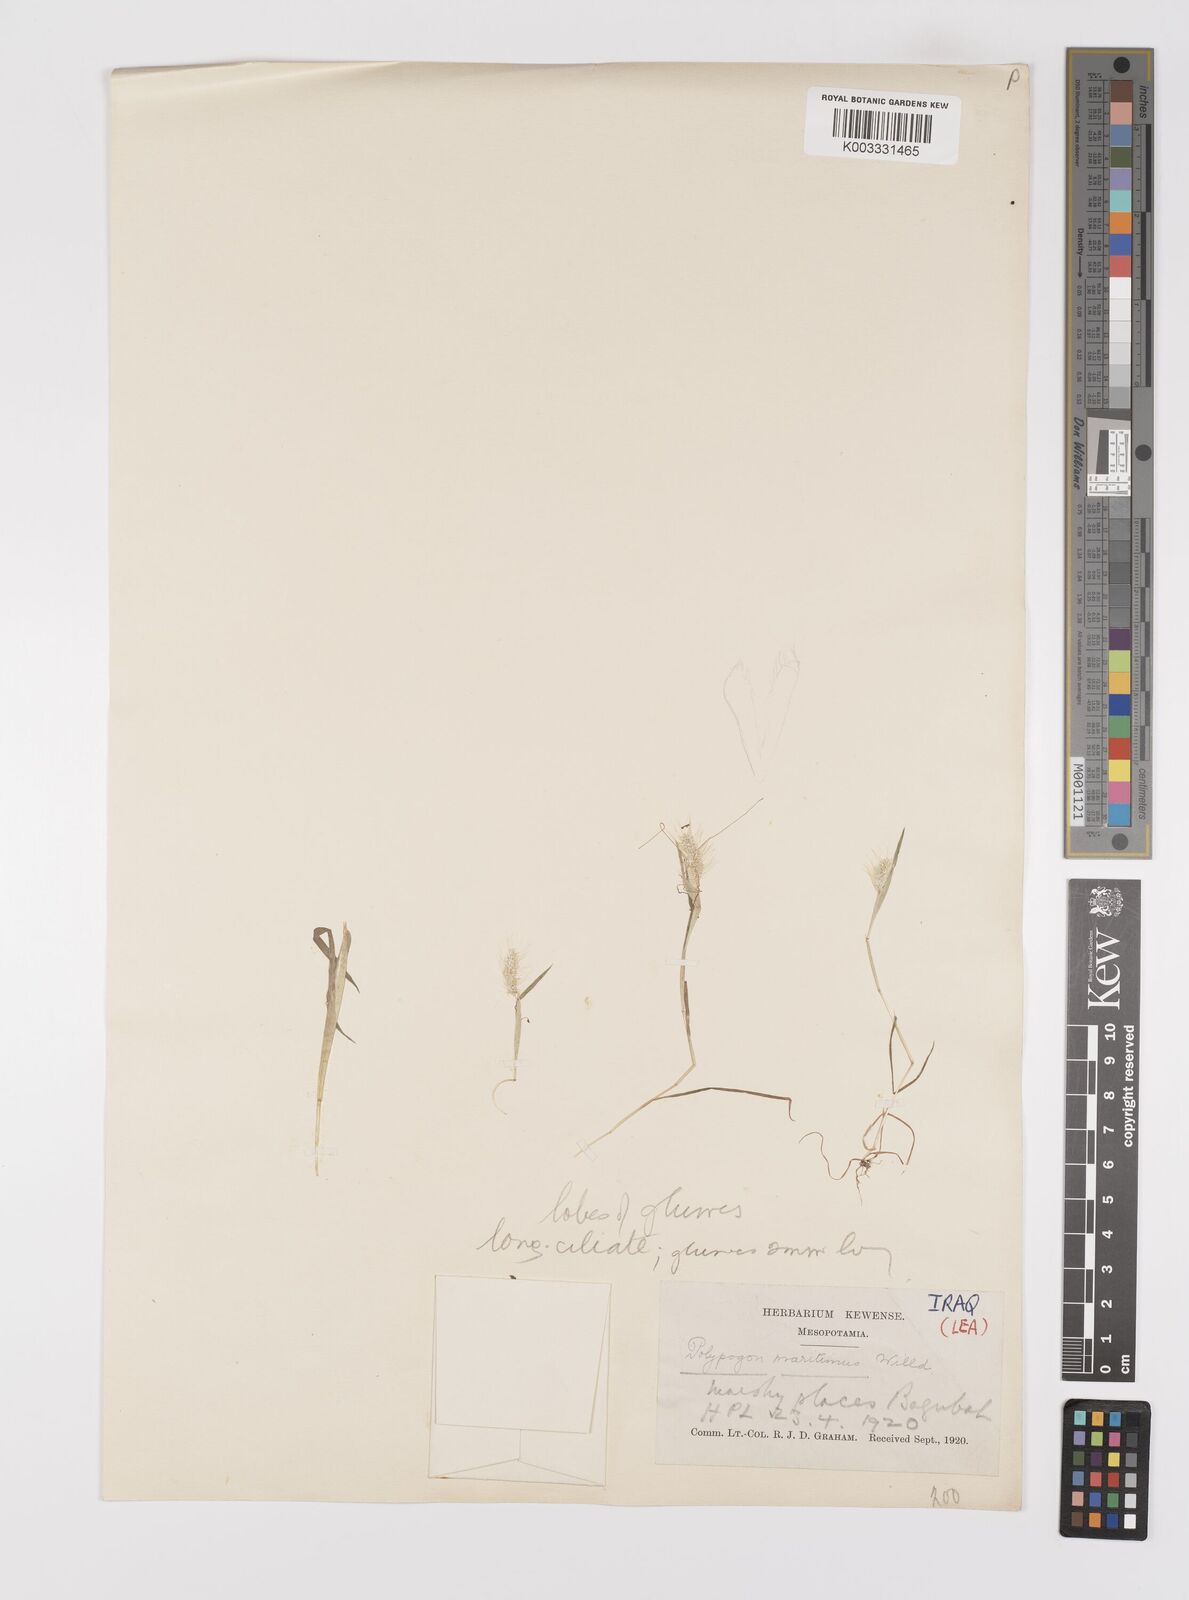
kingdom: Plantae
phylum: Tracheophyta
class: Liliopsida
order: Poales
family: Poaceae
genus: Polypogon
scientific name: Polypogon maritimus
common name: Mediterranean rabbitsfoot grass
